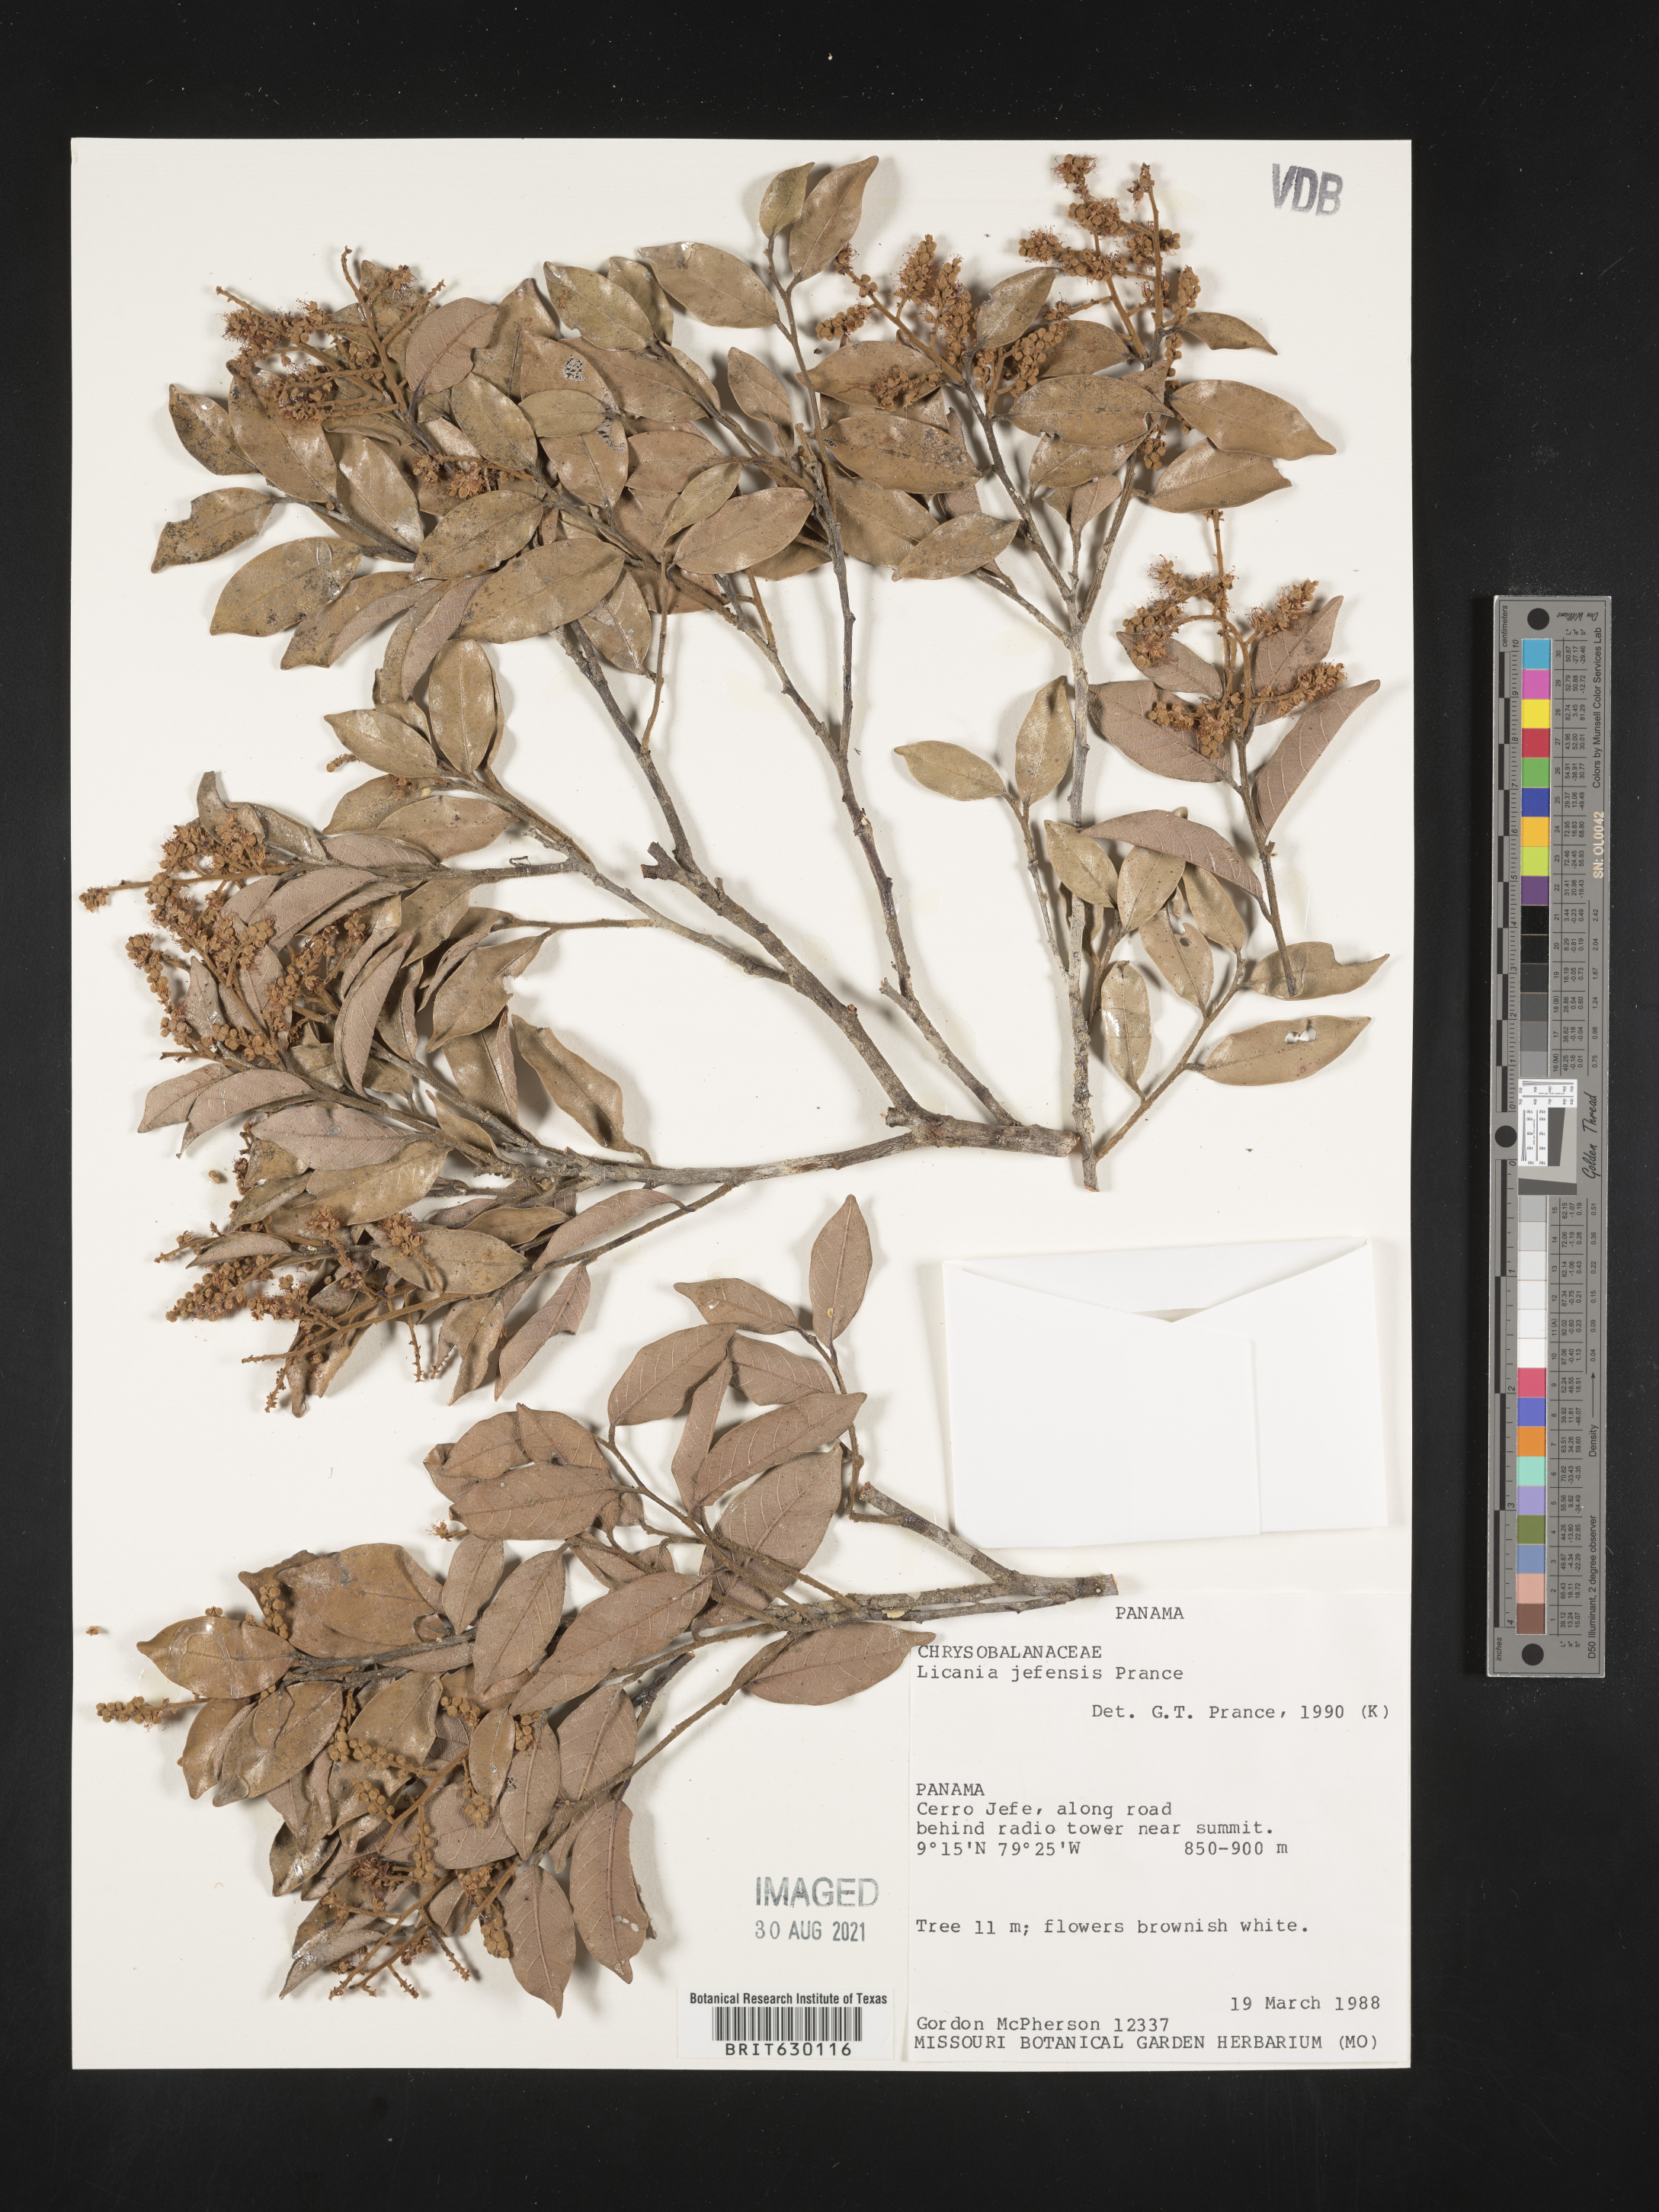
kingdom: Plantae
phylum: Tracheophyta
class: Magnoliopsida
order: Malpighiales
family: Chrysobalanaceae
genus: Leptobalanus
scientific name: Leptobalanus jefensis
